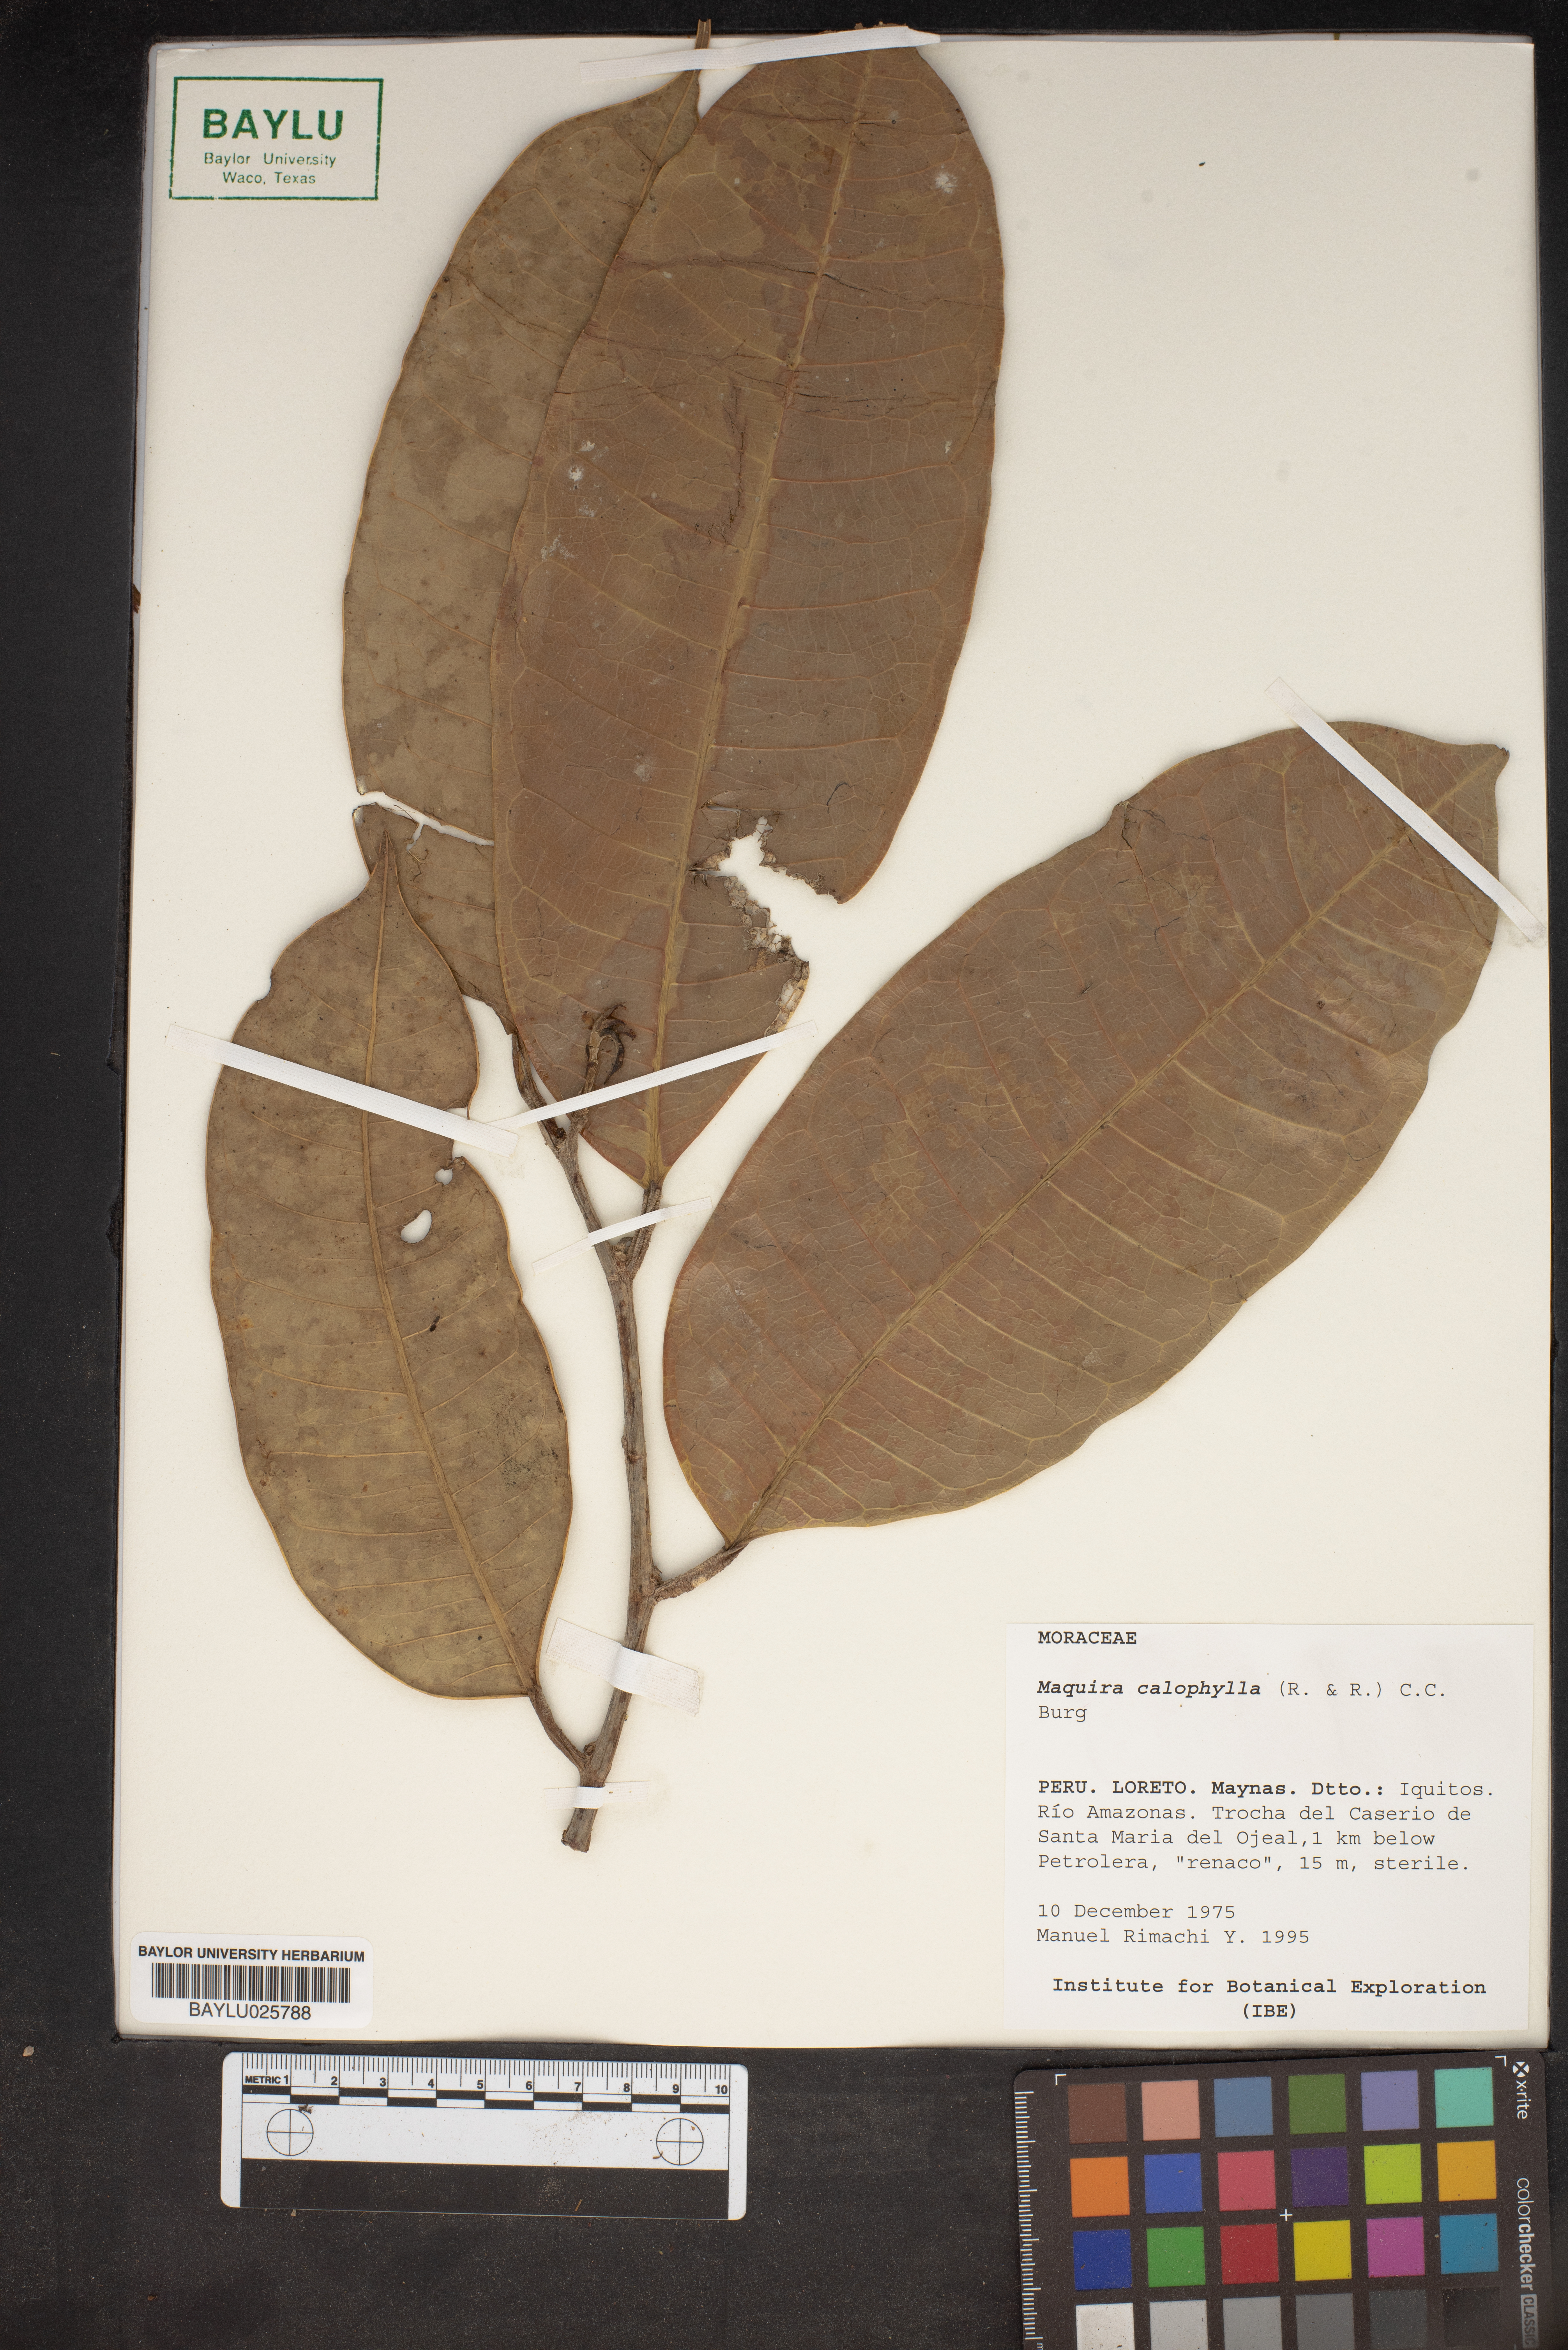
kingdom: Plantae
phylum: Tracheophyta
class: Magnoliopsida
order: Rosales
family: Moraceae
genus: Maquira
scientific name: Maquira calophylla
